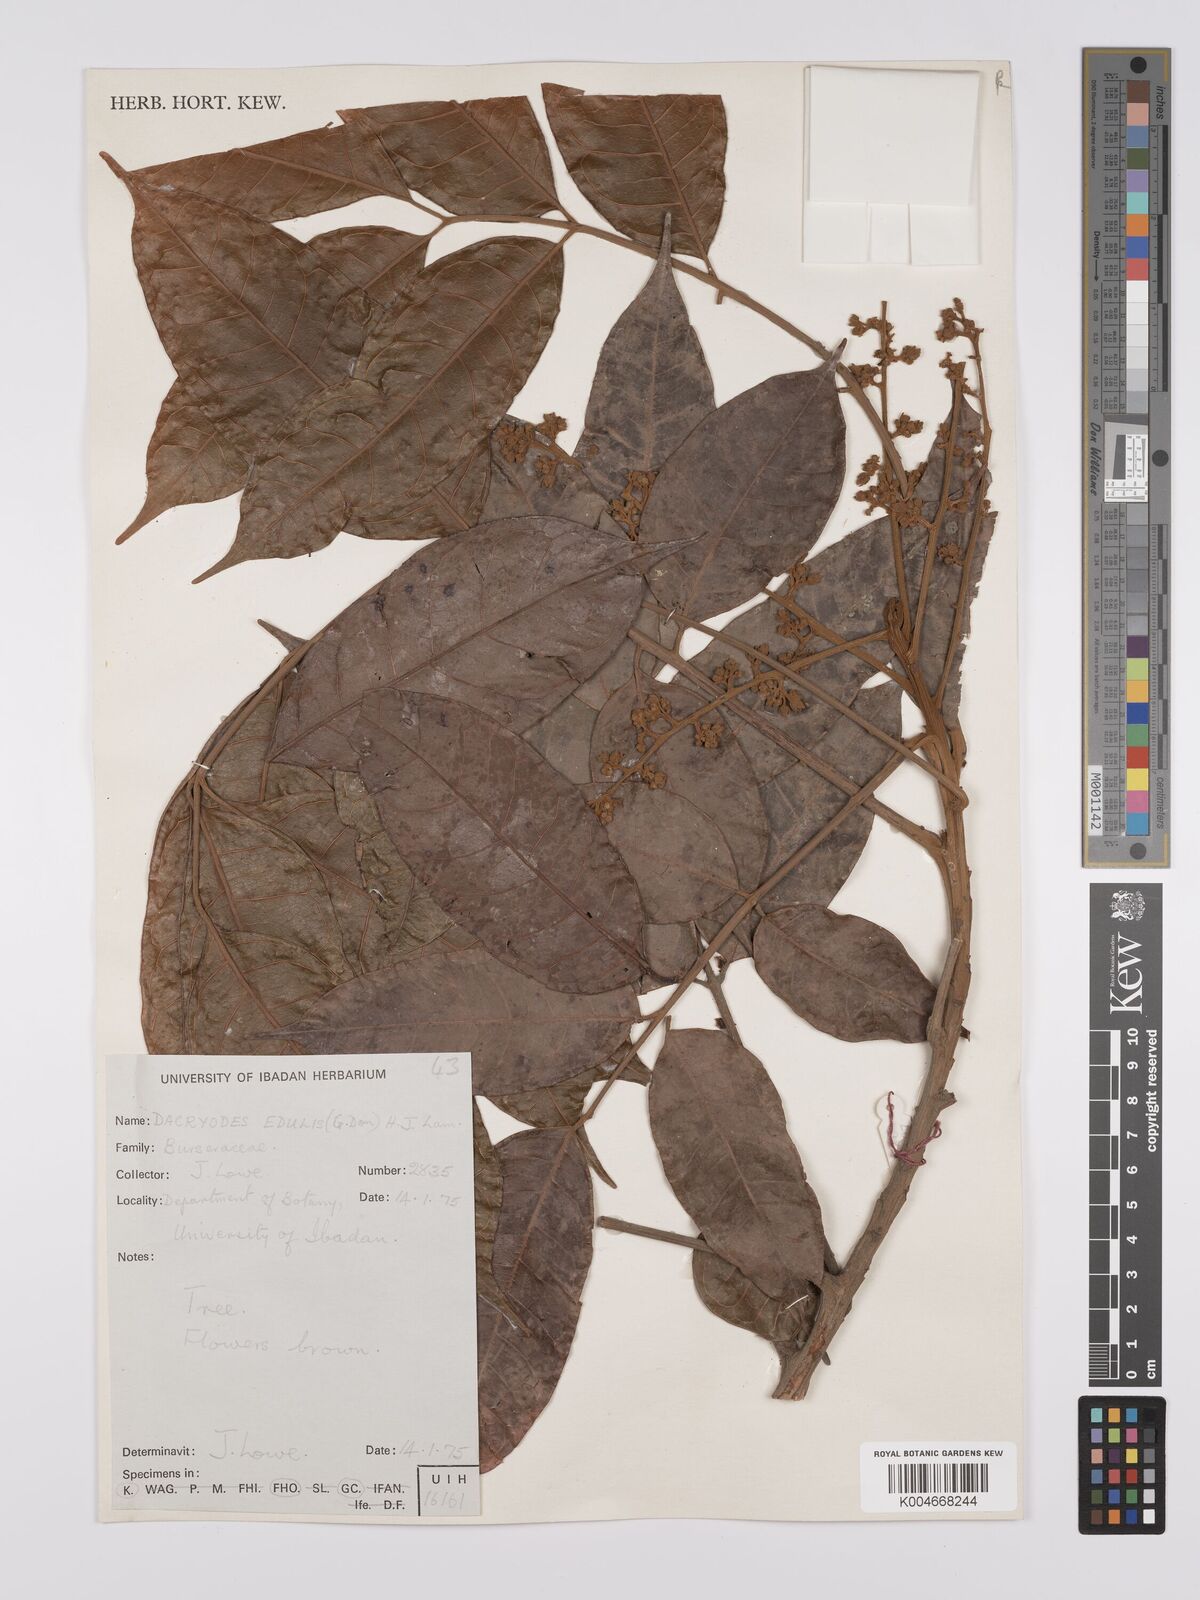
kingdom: Plantae
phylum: Tracheophyta
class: Magnoliopsida
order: Sapindales
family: Burseraceae
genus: Pachylobus
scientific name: Pachylobus edulis
